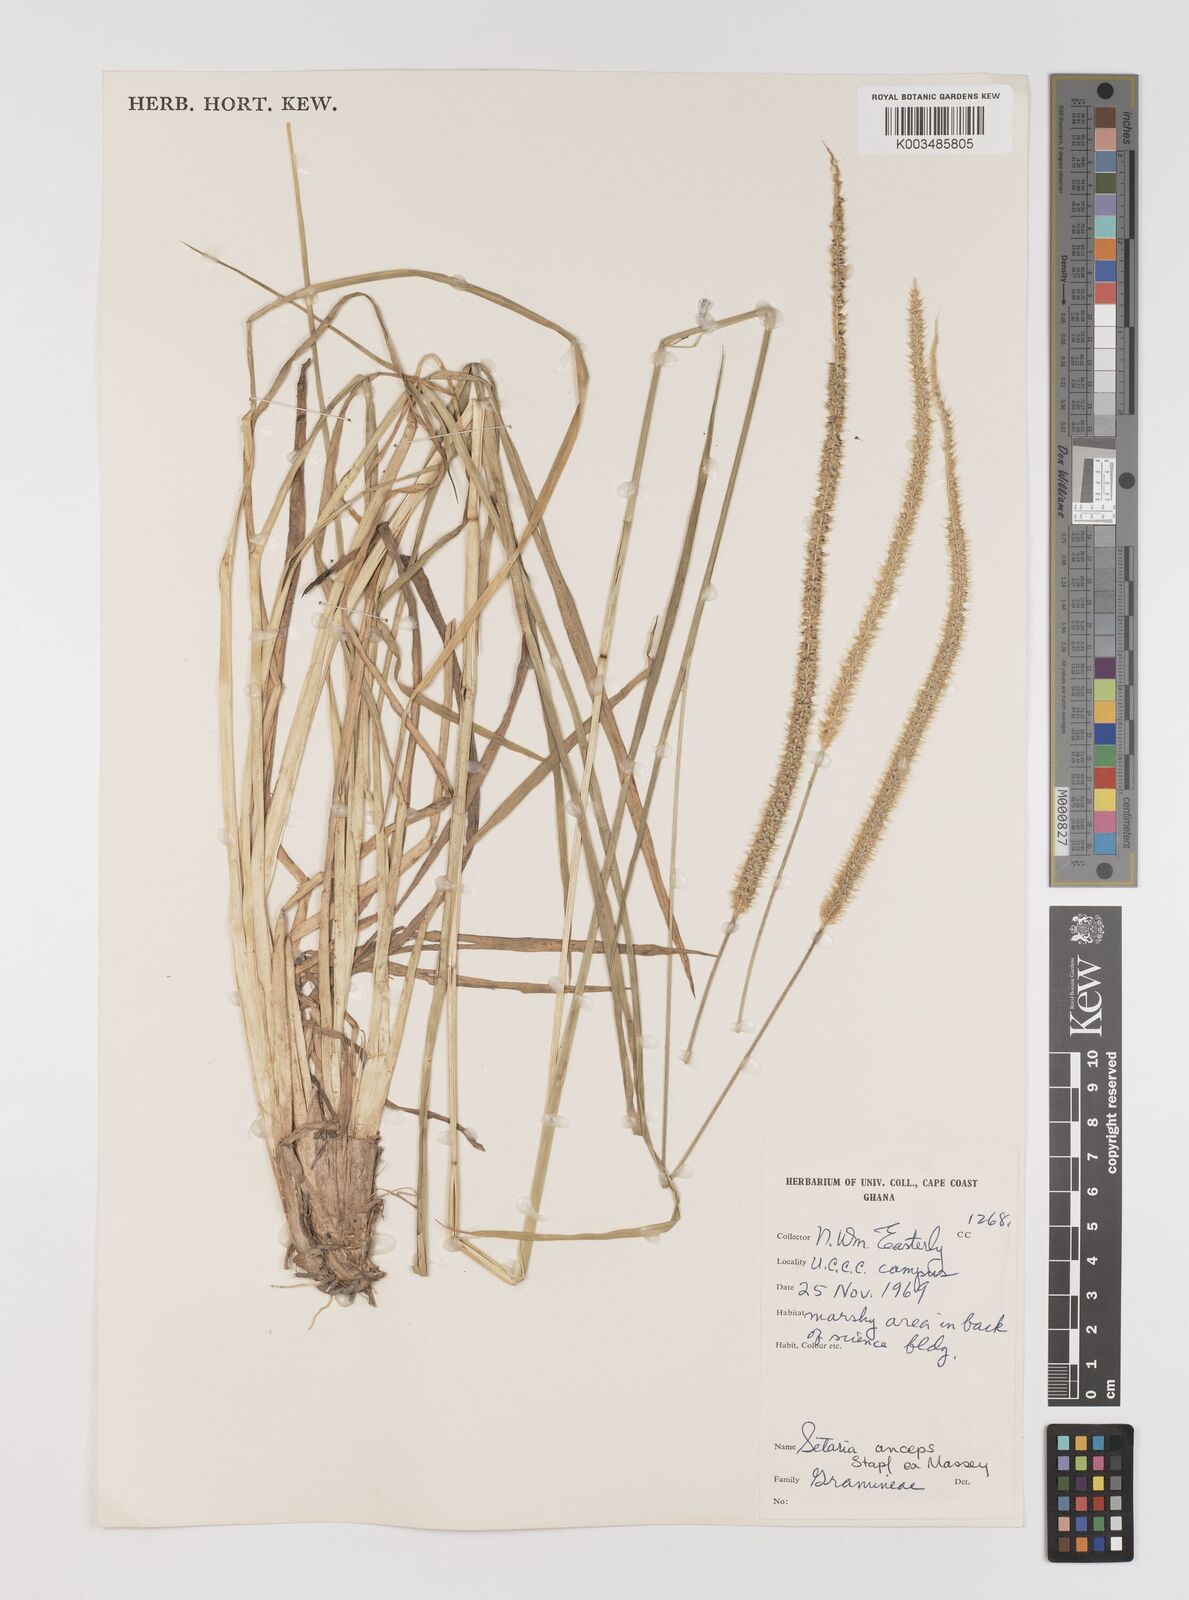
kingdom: Plantae
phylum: Tracheophyta
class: Liliopsida
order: Poales
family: Poaceae
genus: Setaria
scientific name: Setaria sphacelata
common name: African bristlegrass
